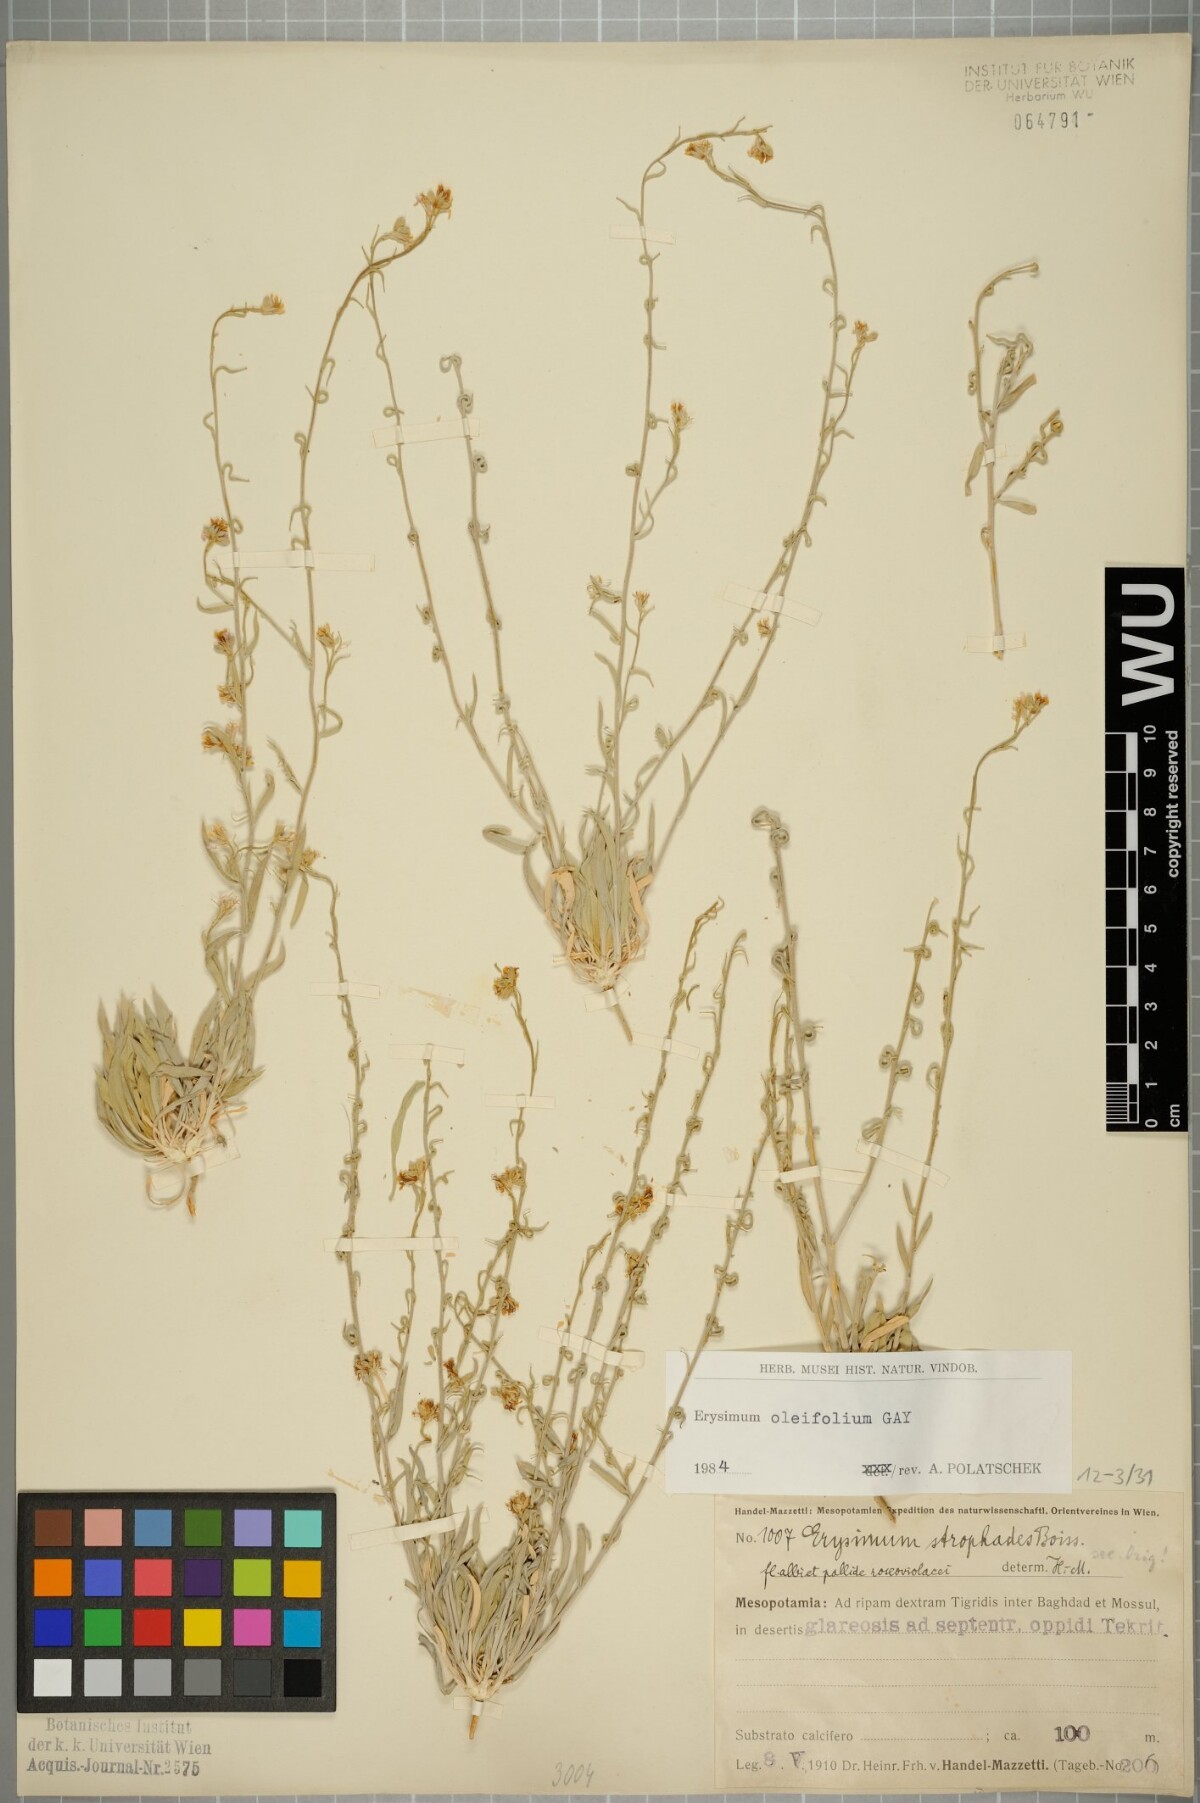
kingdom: Plantae
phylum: Tracheophyta
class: Magnoliopsida
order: Brassicales
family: Brassicaceae
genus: Erysimum
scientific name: Erysimum oleifolium
